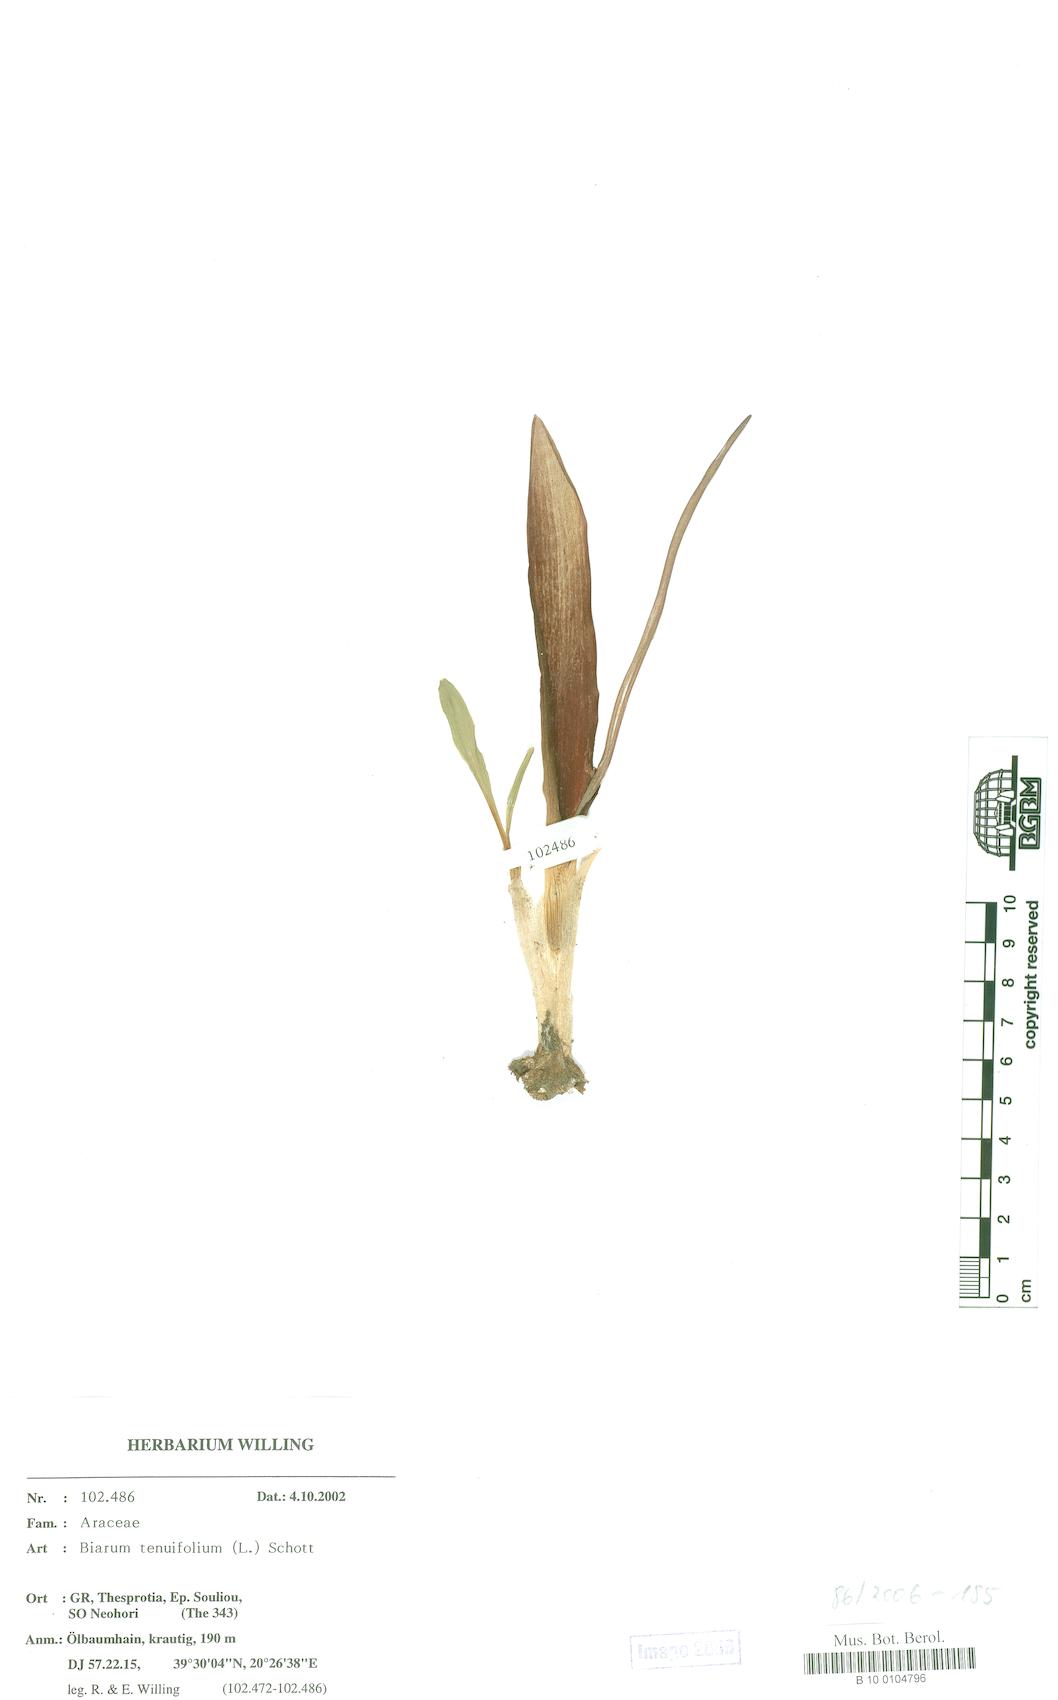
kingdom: Plantae
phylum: Tracheophyta
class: Liliopsida
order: Alismatales
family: Araceae
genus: Biarum
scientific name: Biarum tenuifolium
